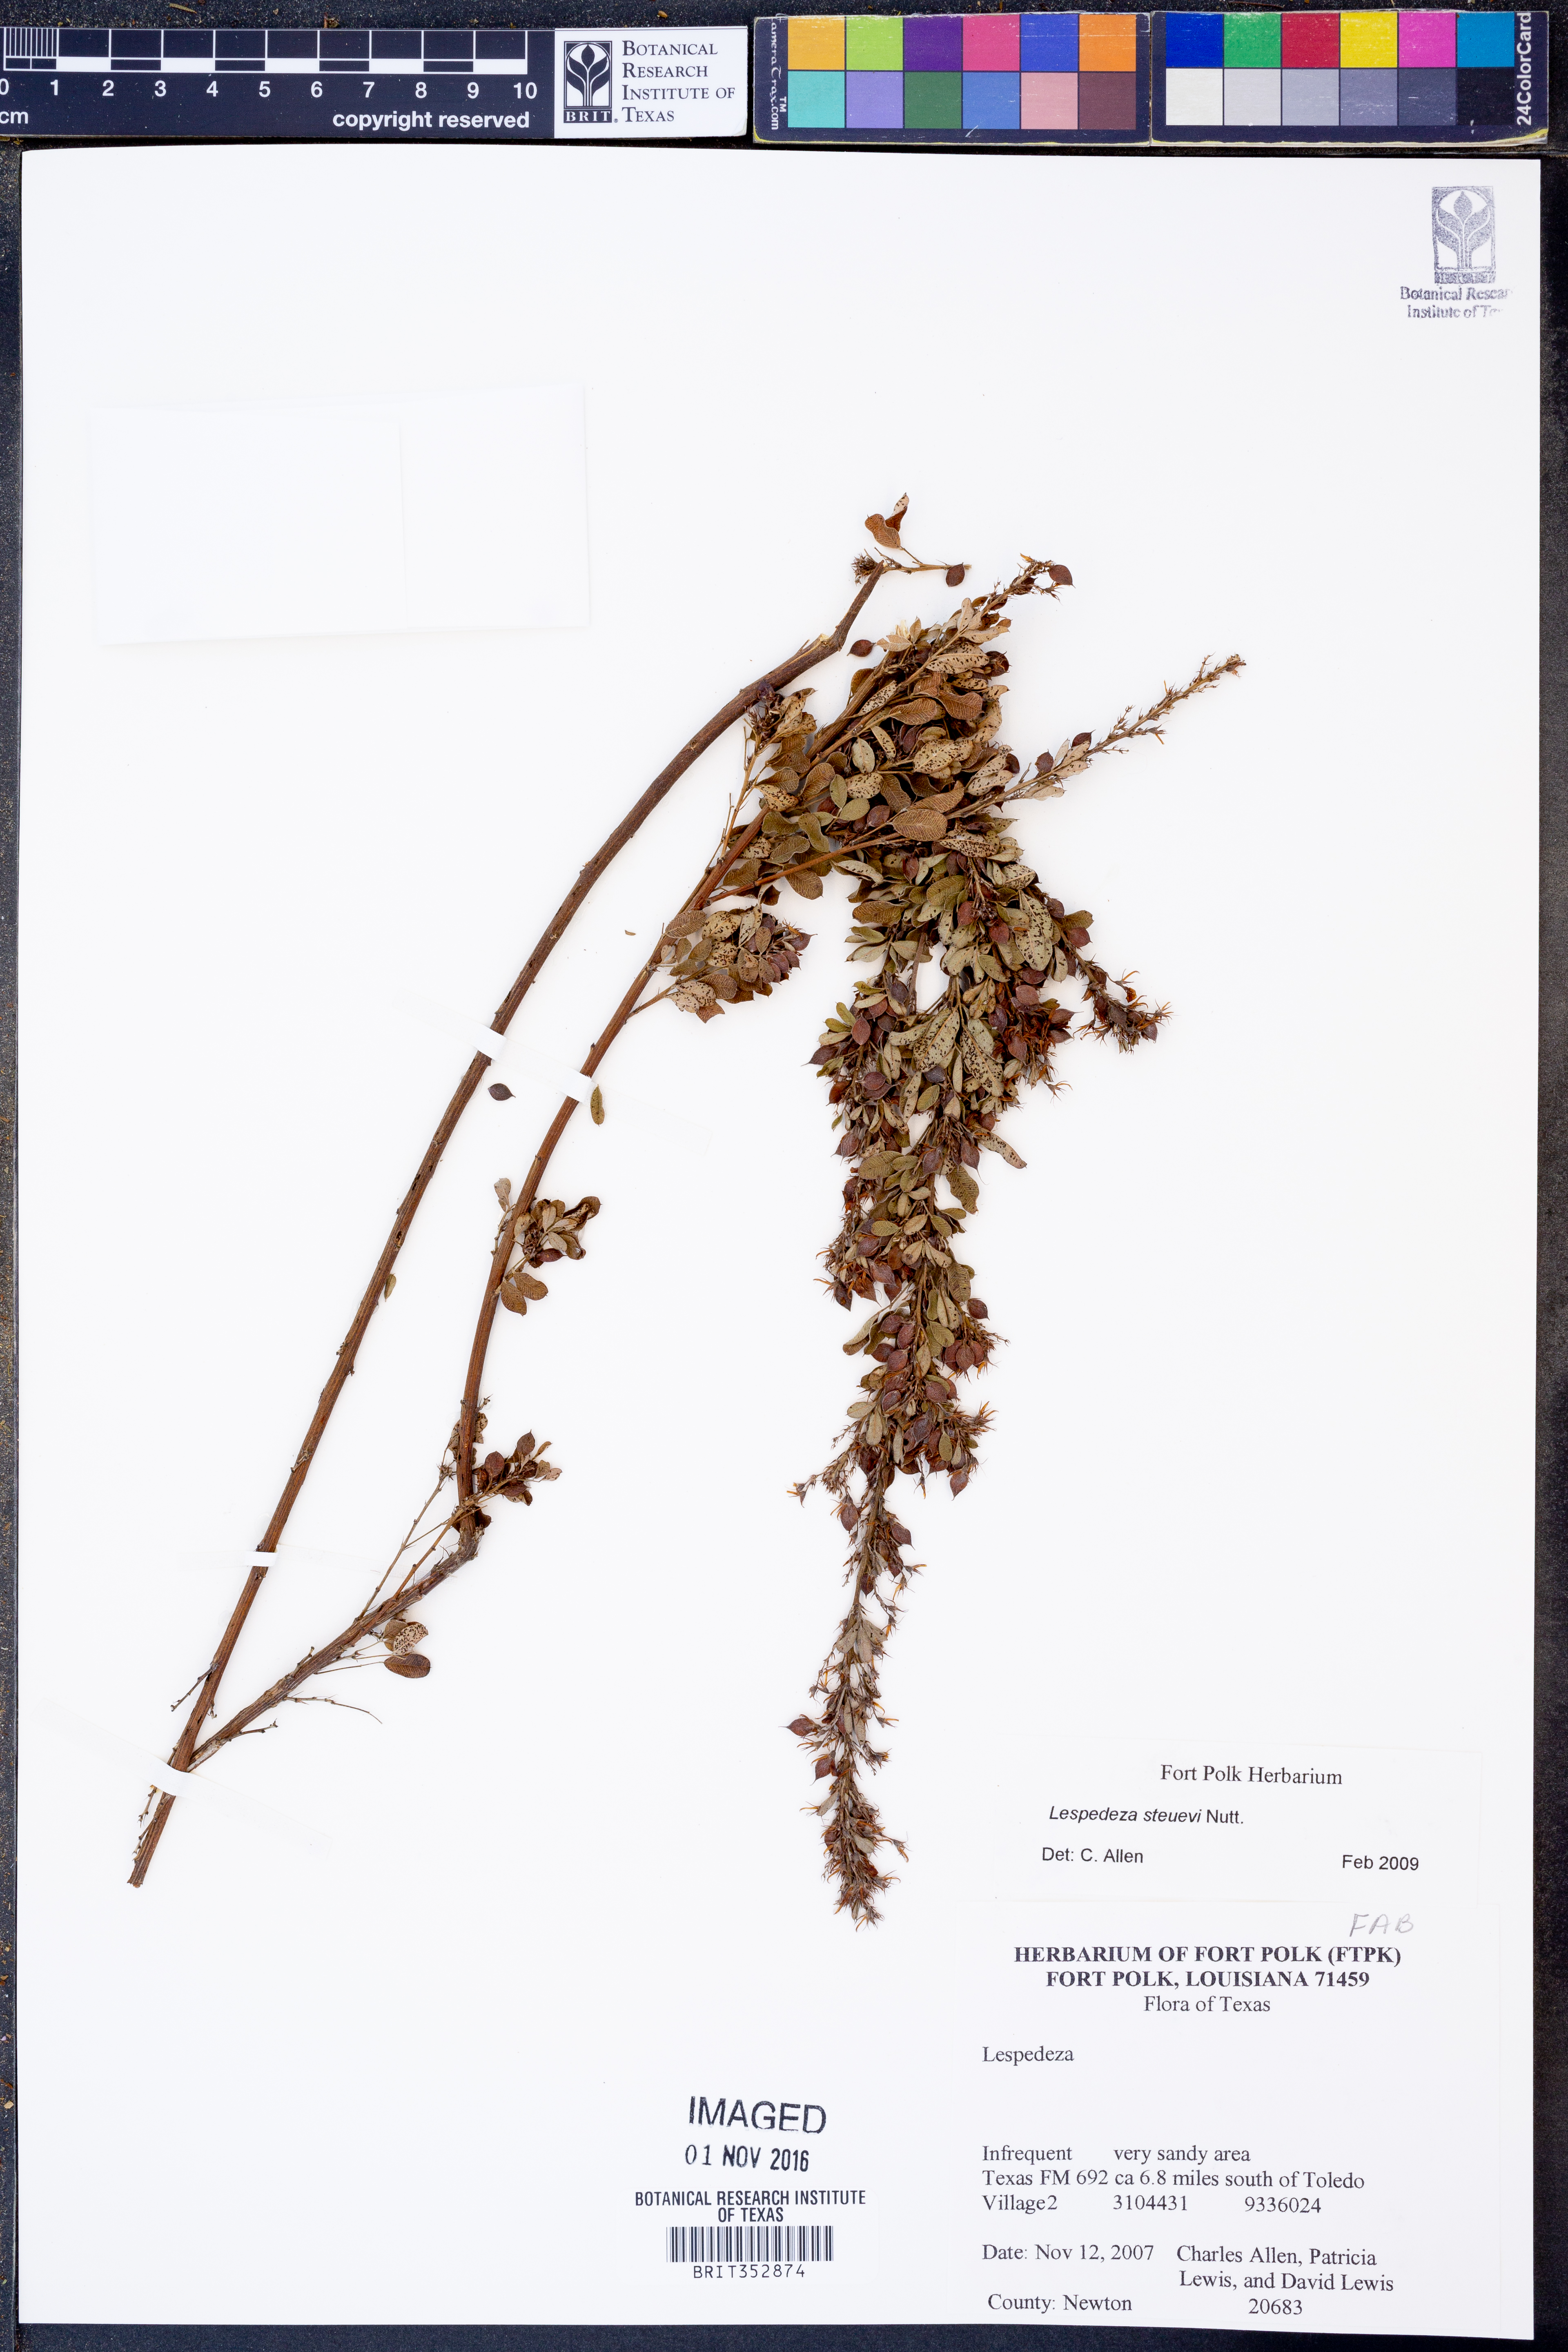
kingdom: Plantae
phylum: Tracheophyta
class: Magnoliopsida
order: Fabales
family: Fabaceae
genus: Lespedeza
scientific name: Lespedeza stuevei
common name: Tall bush-clover
